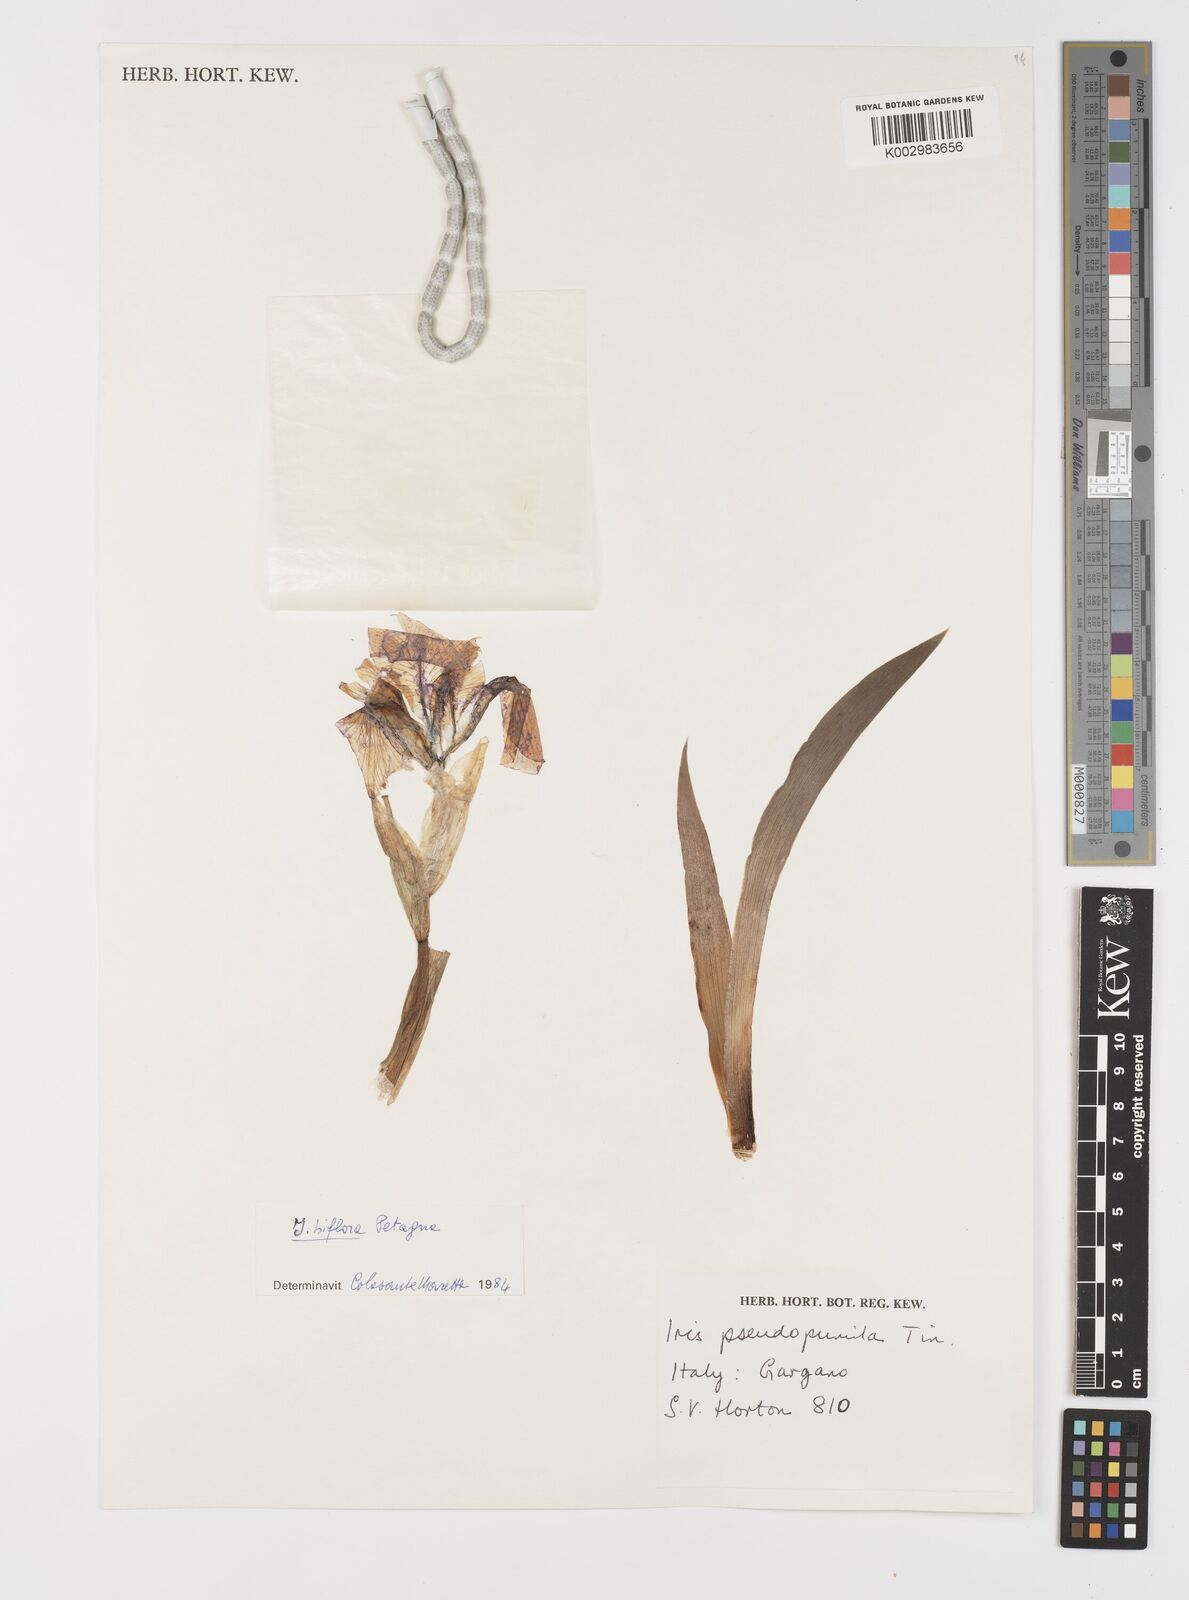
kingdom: Plantae
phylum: Tracheophyta
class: Liliopsida
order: Asparagales
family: Iridaceae
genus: Iris
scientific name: Iris pseudopumila
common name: Southern dwarf iris
